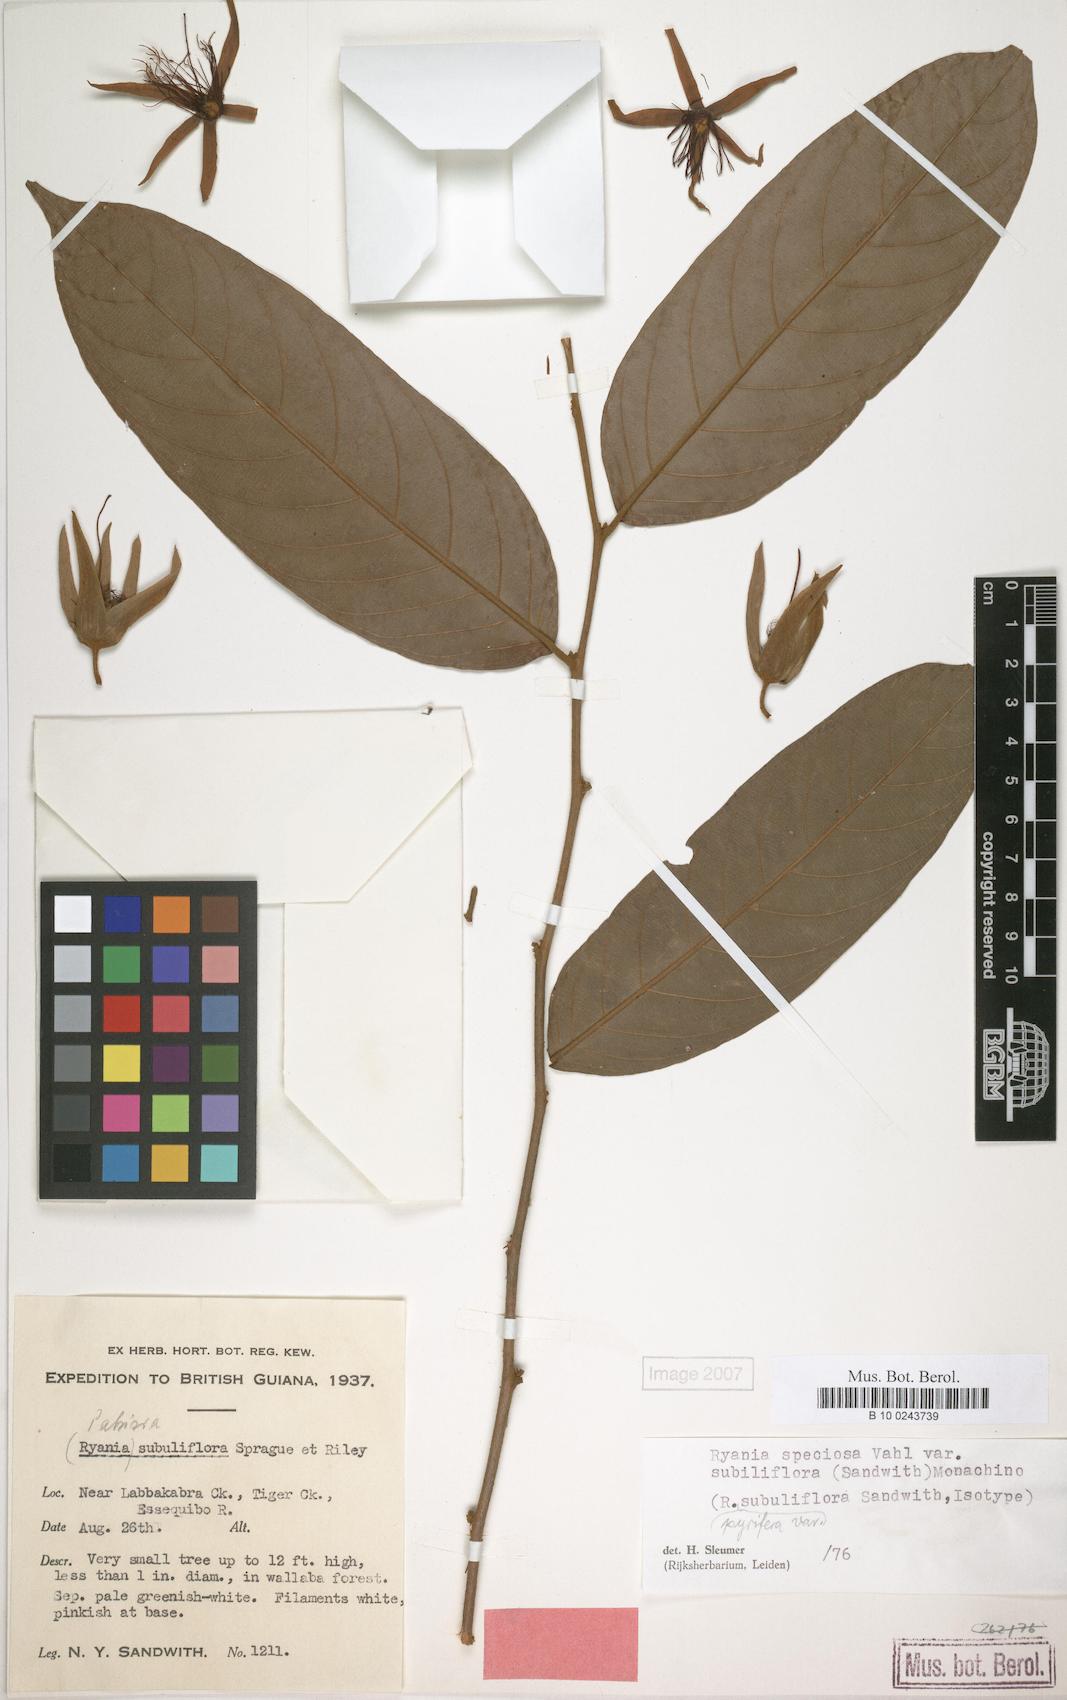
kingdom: Plantae
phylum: Tracheophyta
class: Magnoliopsida
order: Malpighiales
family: Salicaceae
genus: Ryania
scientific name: Ryania speciosa
